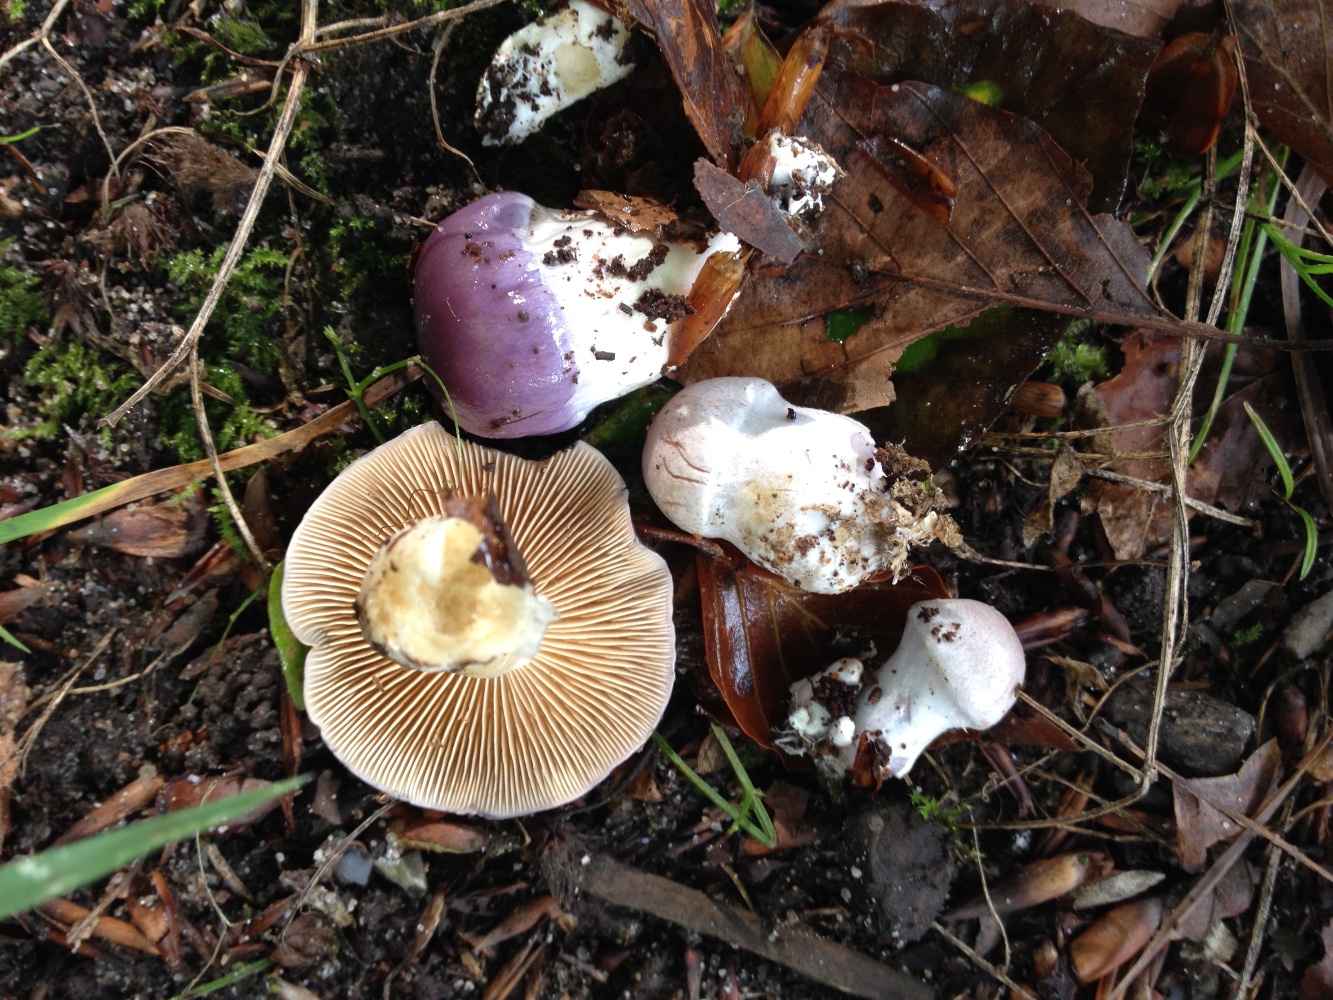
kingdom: Fungi
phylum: Basidiomycota
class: Agaricomycetes
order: Agaricales
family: Cortinariaceae
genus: Thaxterogaster
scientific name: Thaxterogaster croceocoeruleus
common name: blågullig slørhat
